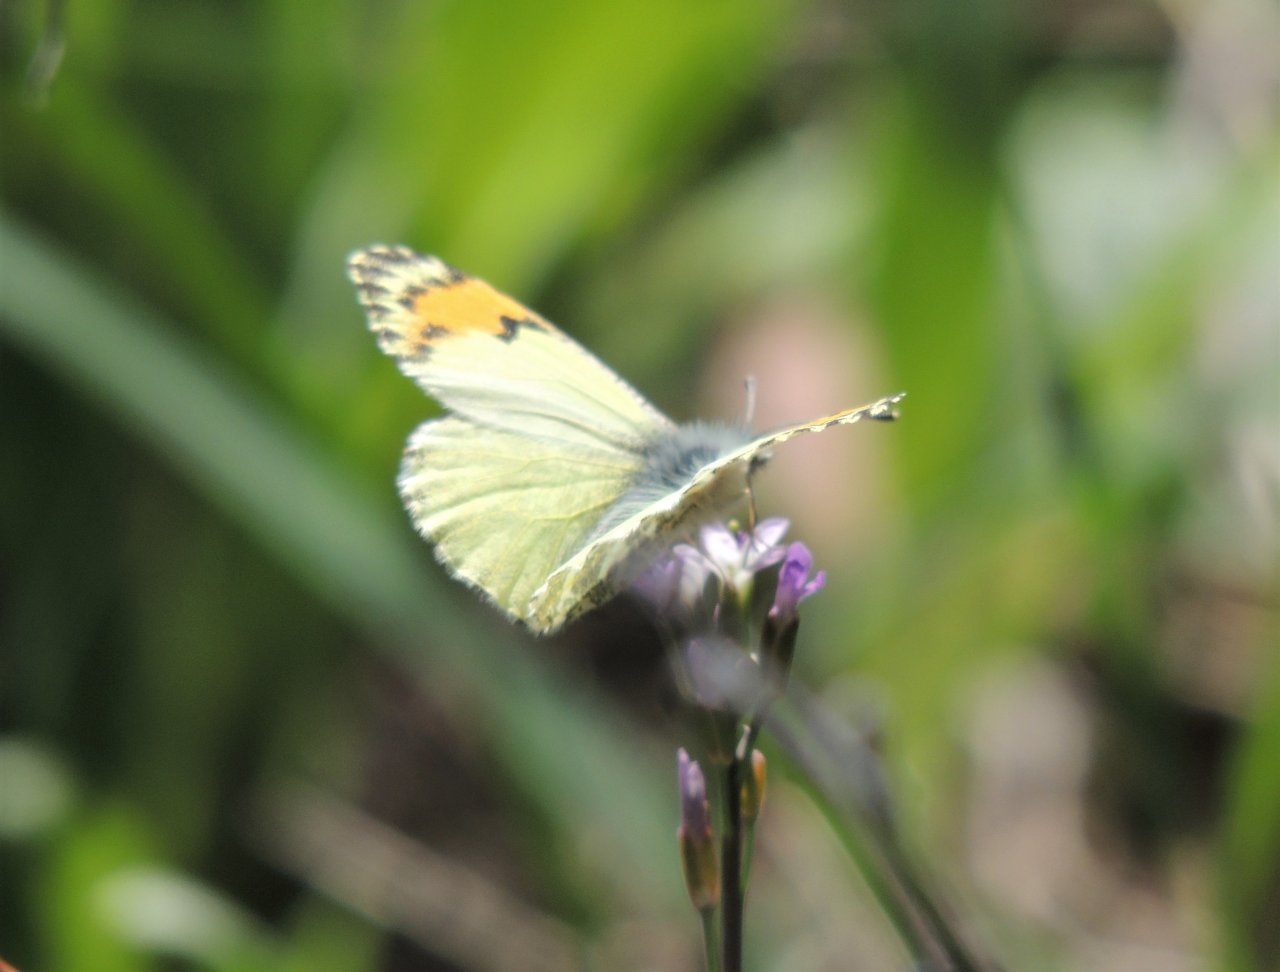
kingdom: Animalia
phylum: Arthropoda
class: Insecta
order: Lepidoptera
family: Pieridae
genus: Anthocharis
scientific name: Anthocharis sara
